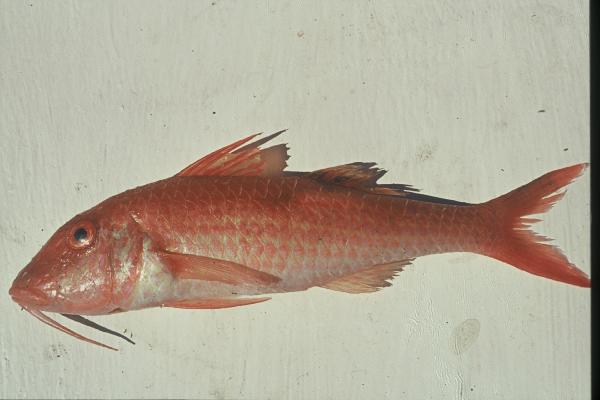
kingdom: Animalia
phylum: Chordata
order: Perciformes
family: Mullidae
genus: Parupeneus
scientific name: Parupeneus cyclostomus
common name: Goldsaddle goatfish
